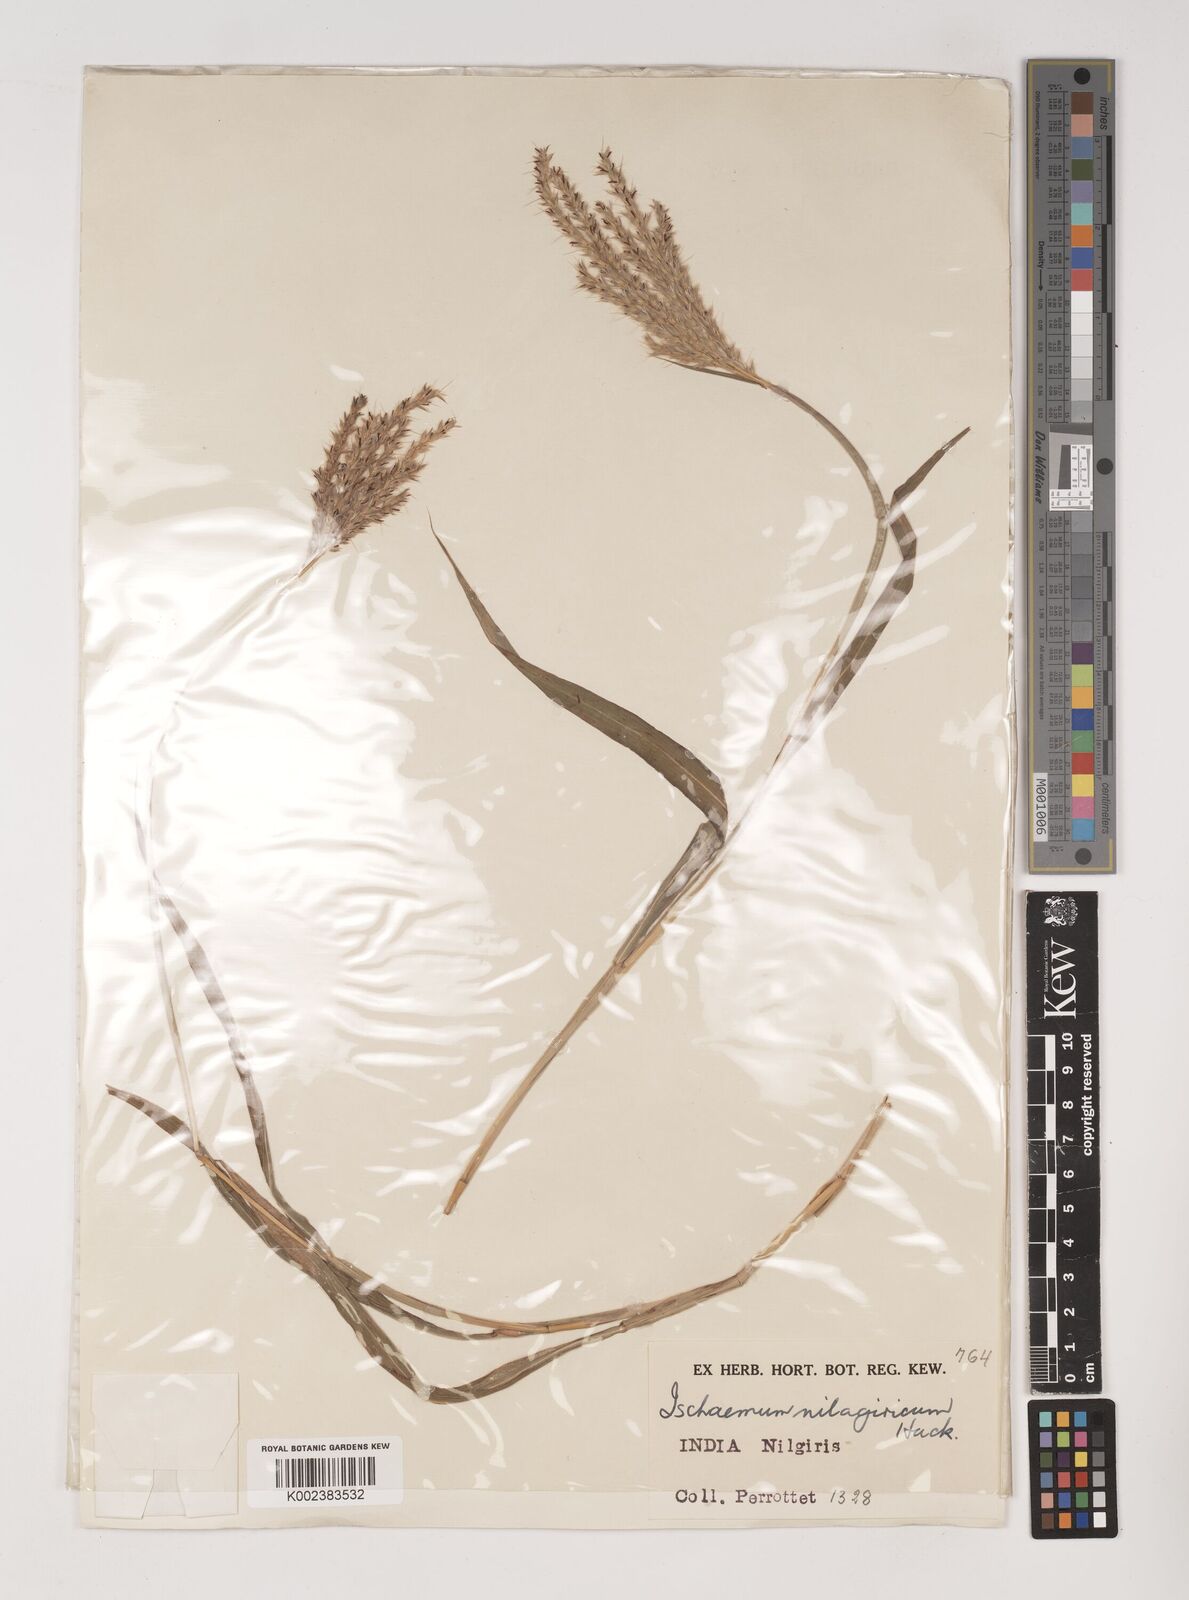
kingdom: Plantae
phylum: Tracheophyta
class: Liliopsida
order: Poales
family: Poaceae
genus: Ischaemum
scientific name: Ischaemum
